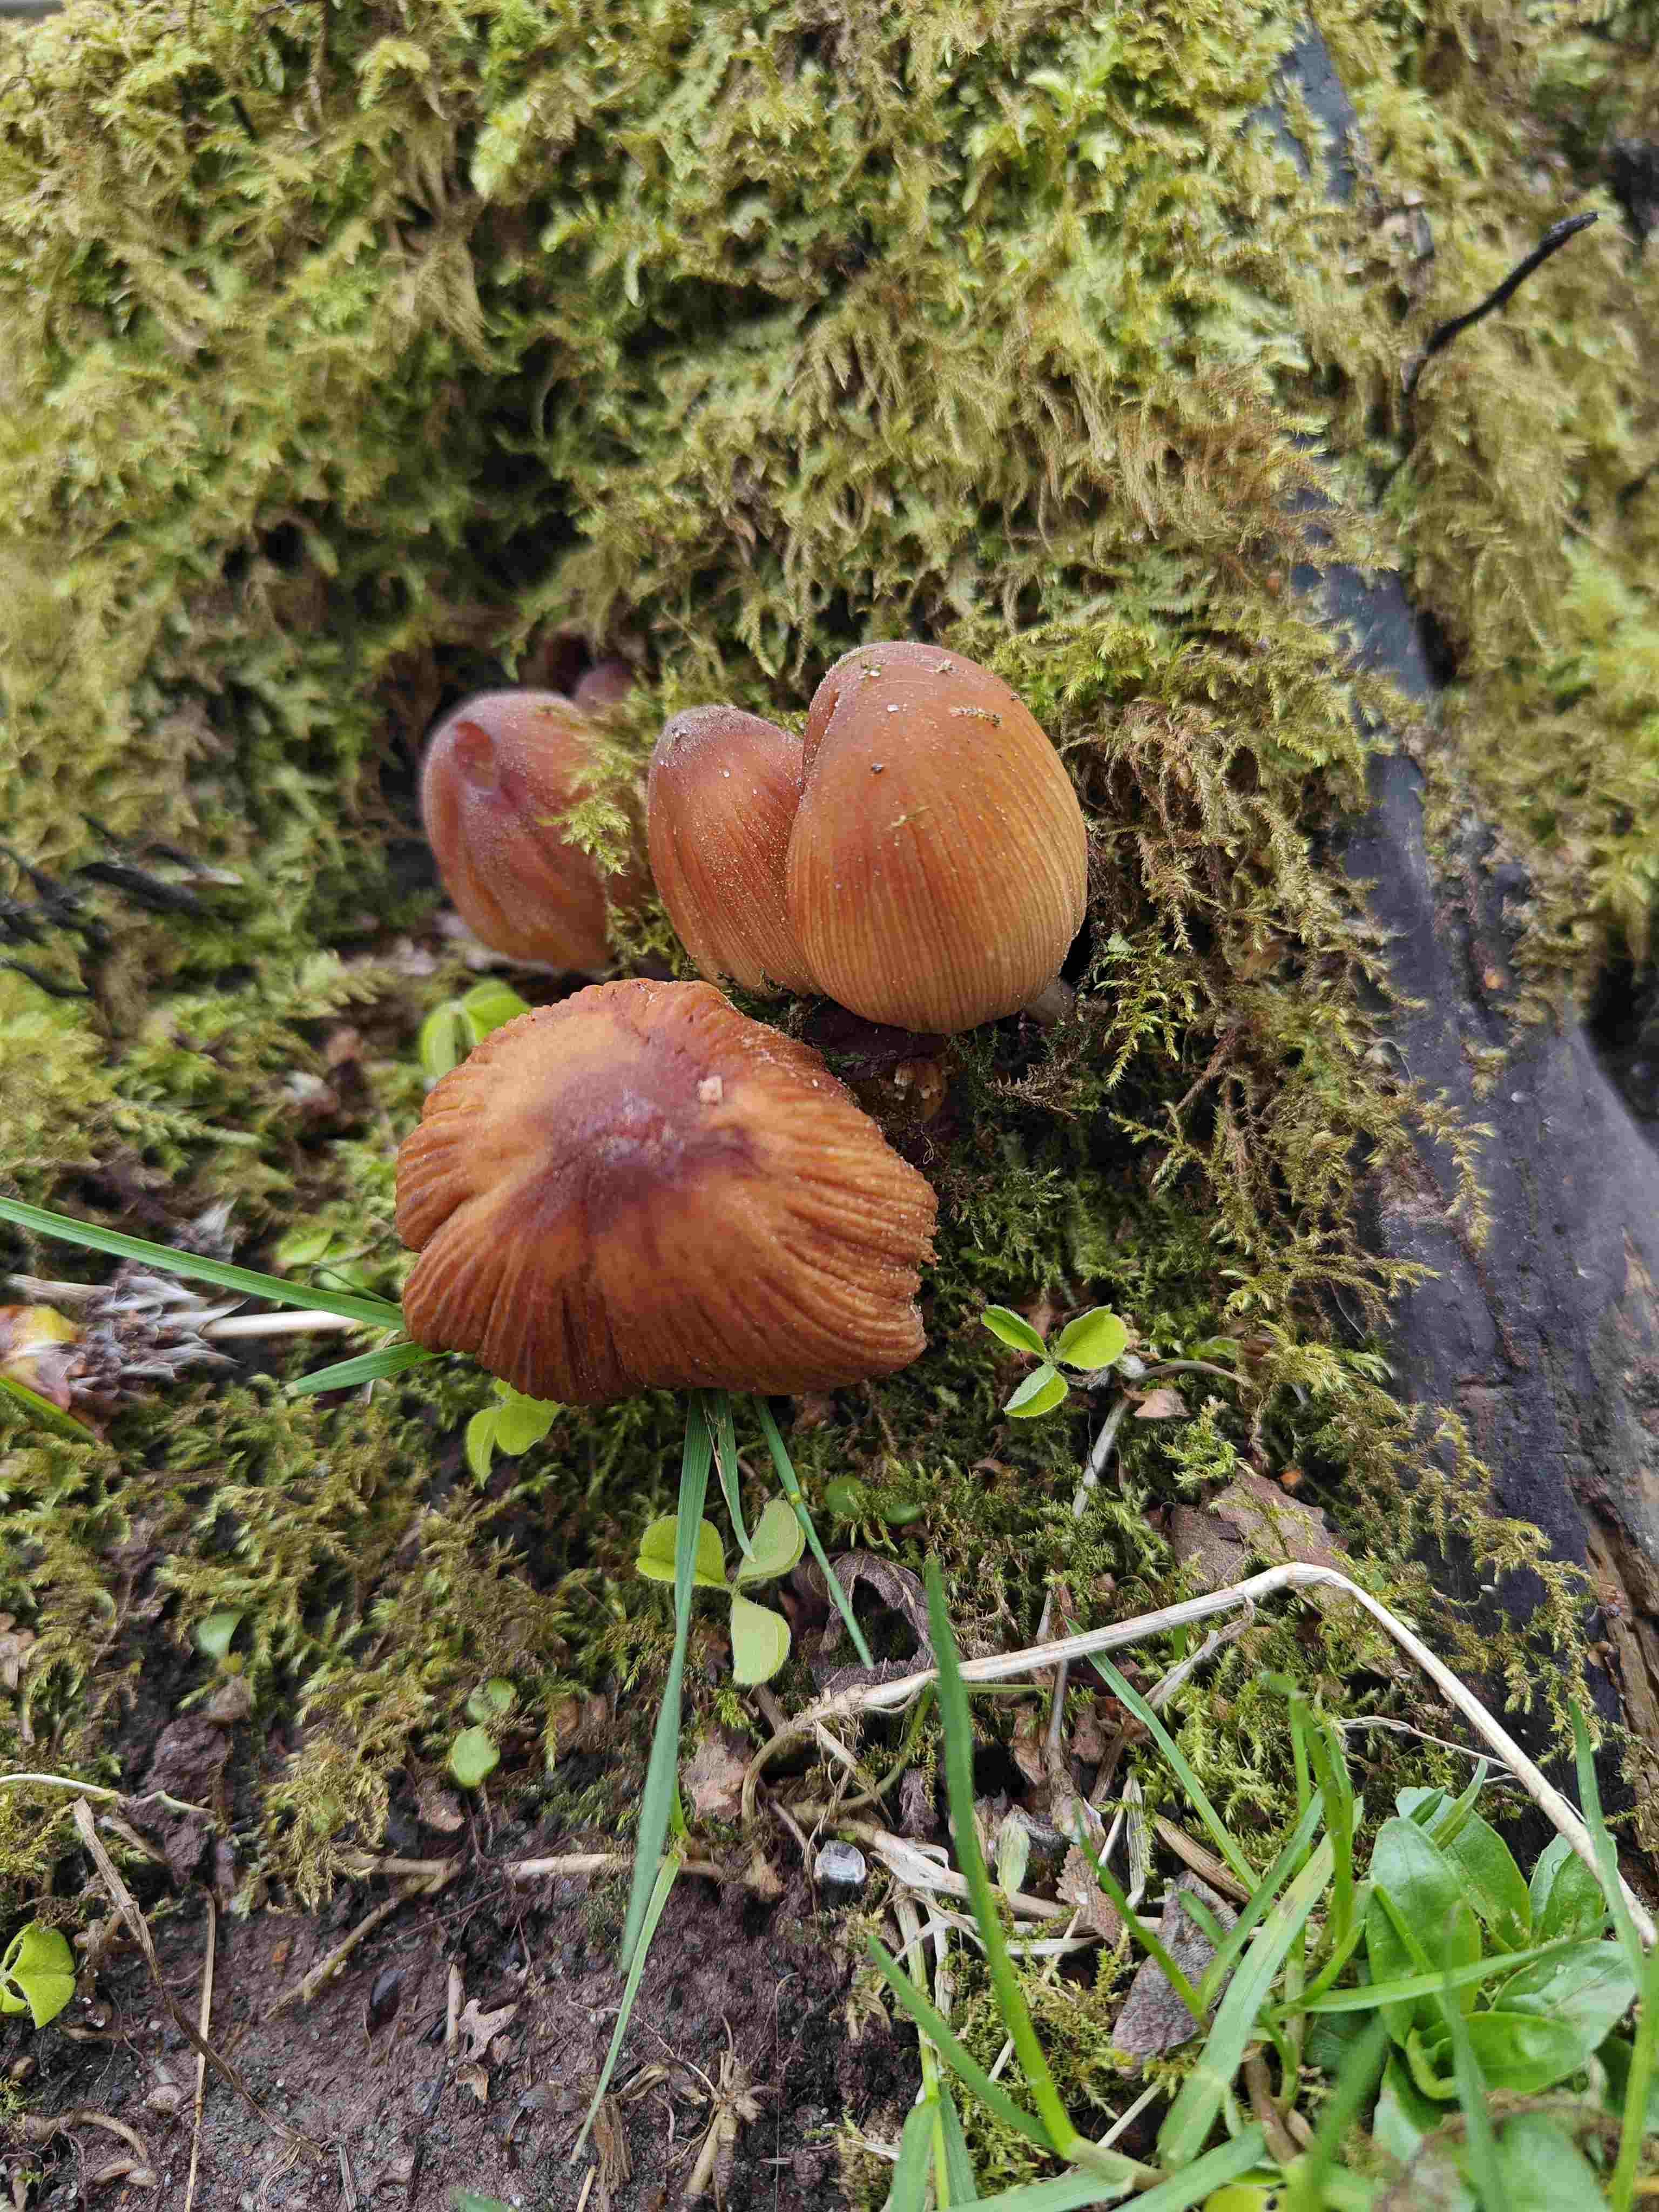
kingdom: Fungi
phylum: Basidiomycota
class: Agaricomycetes
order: Agaricales
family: Psathyrellaceae
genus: Coprinellus
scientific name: Coprinellus micaceus
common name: glimmer-blækhat
